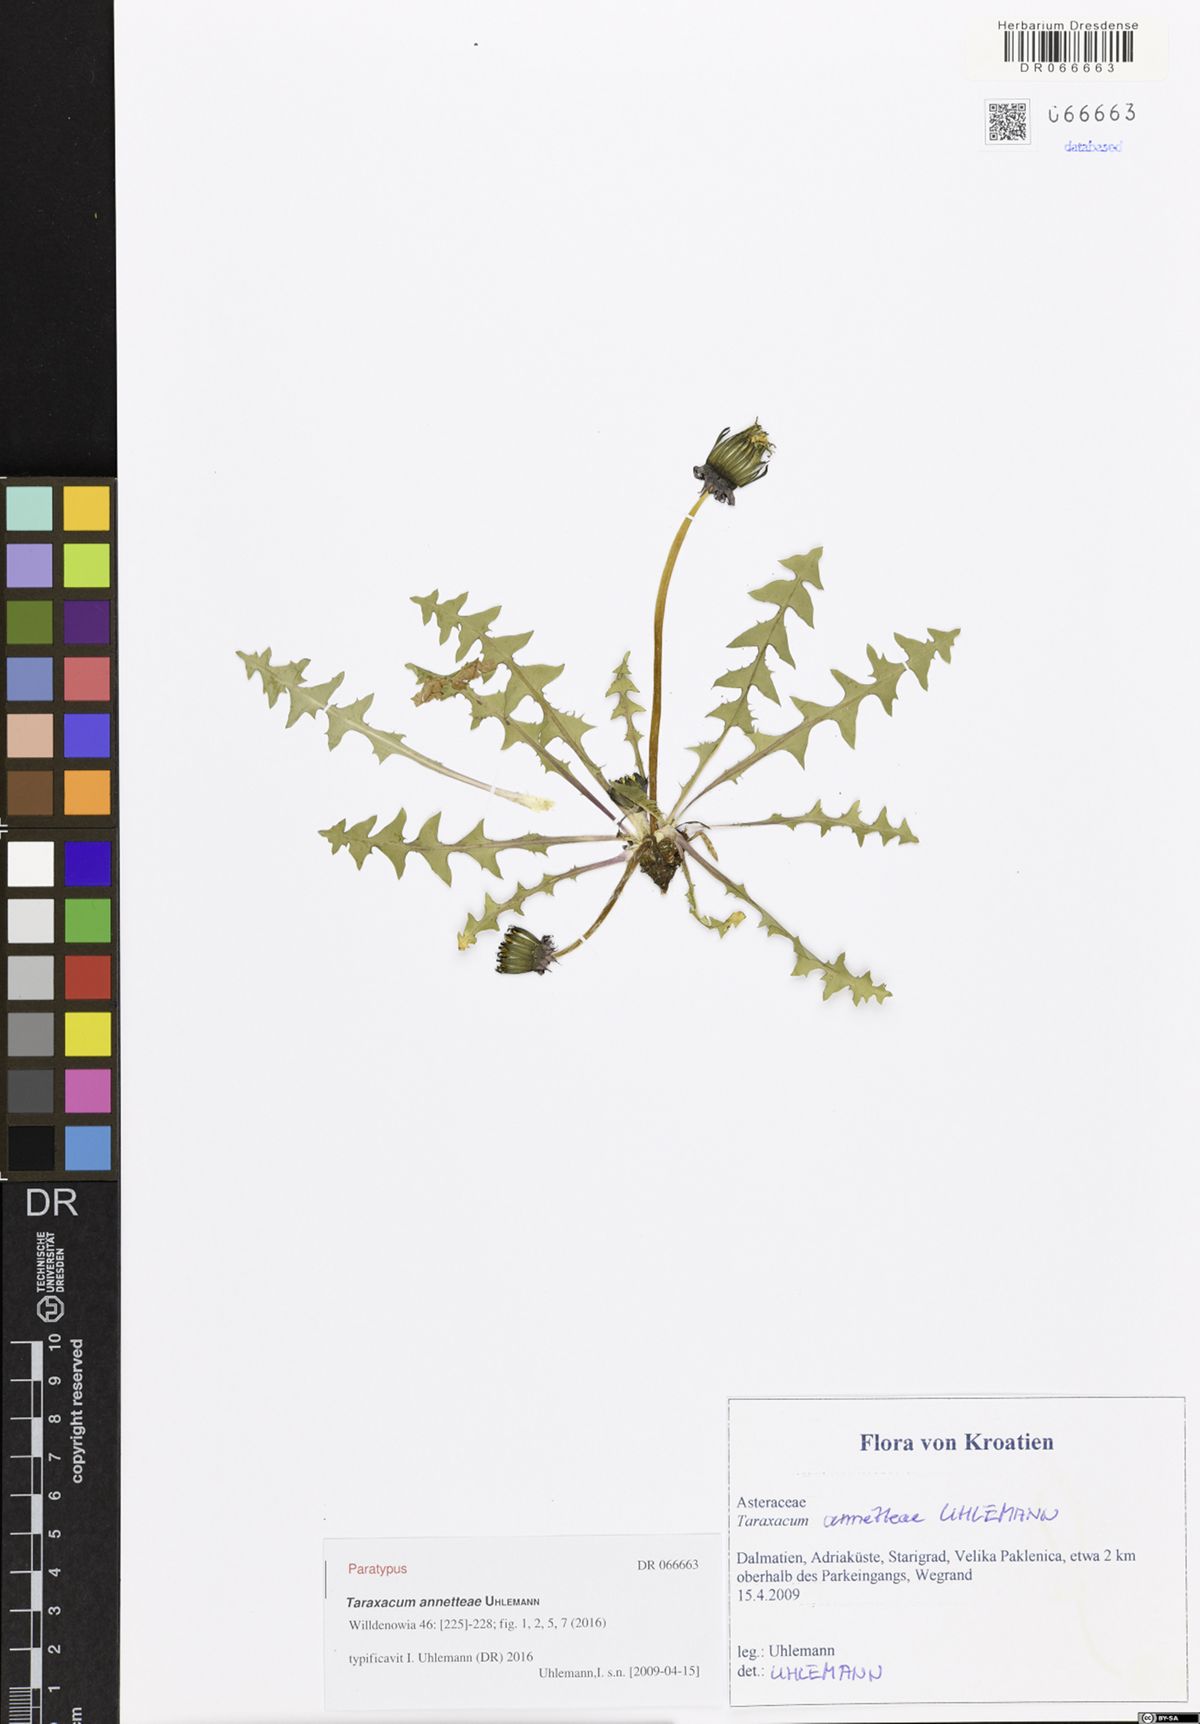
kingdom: Plantae
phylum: Tracheophyta
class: Magnoliopsida
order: Asterales
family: Asteraceae
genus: Taraxacum
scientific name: Taraxacum annetteae
